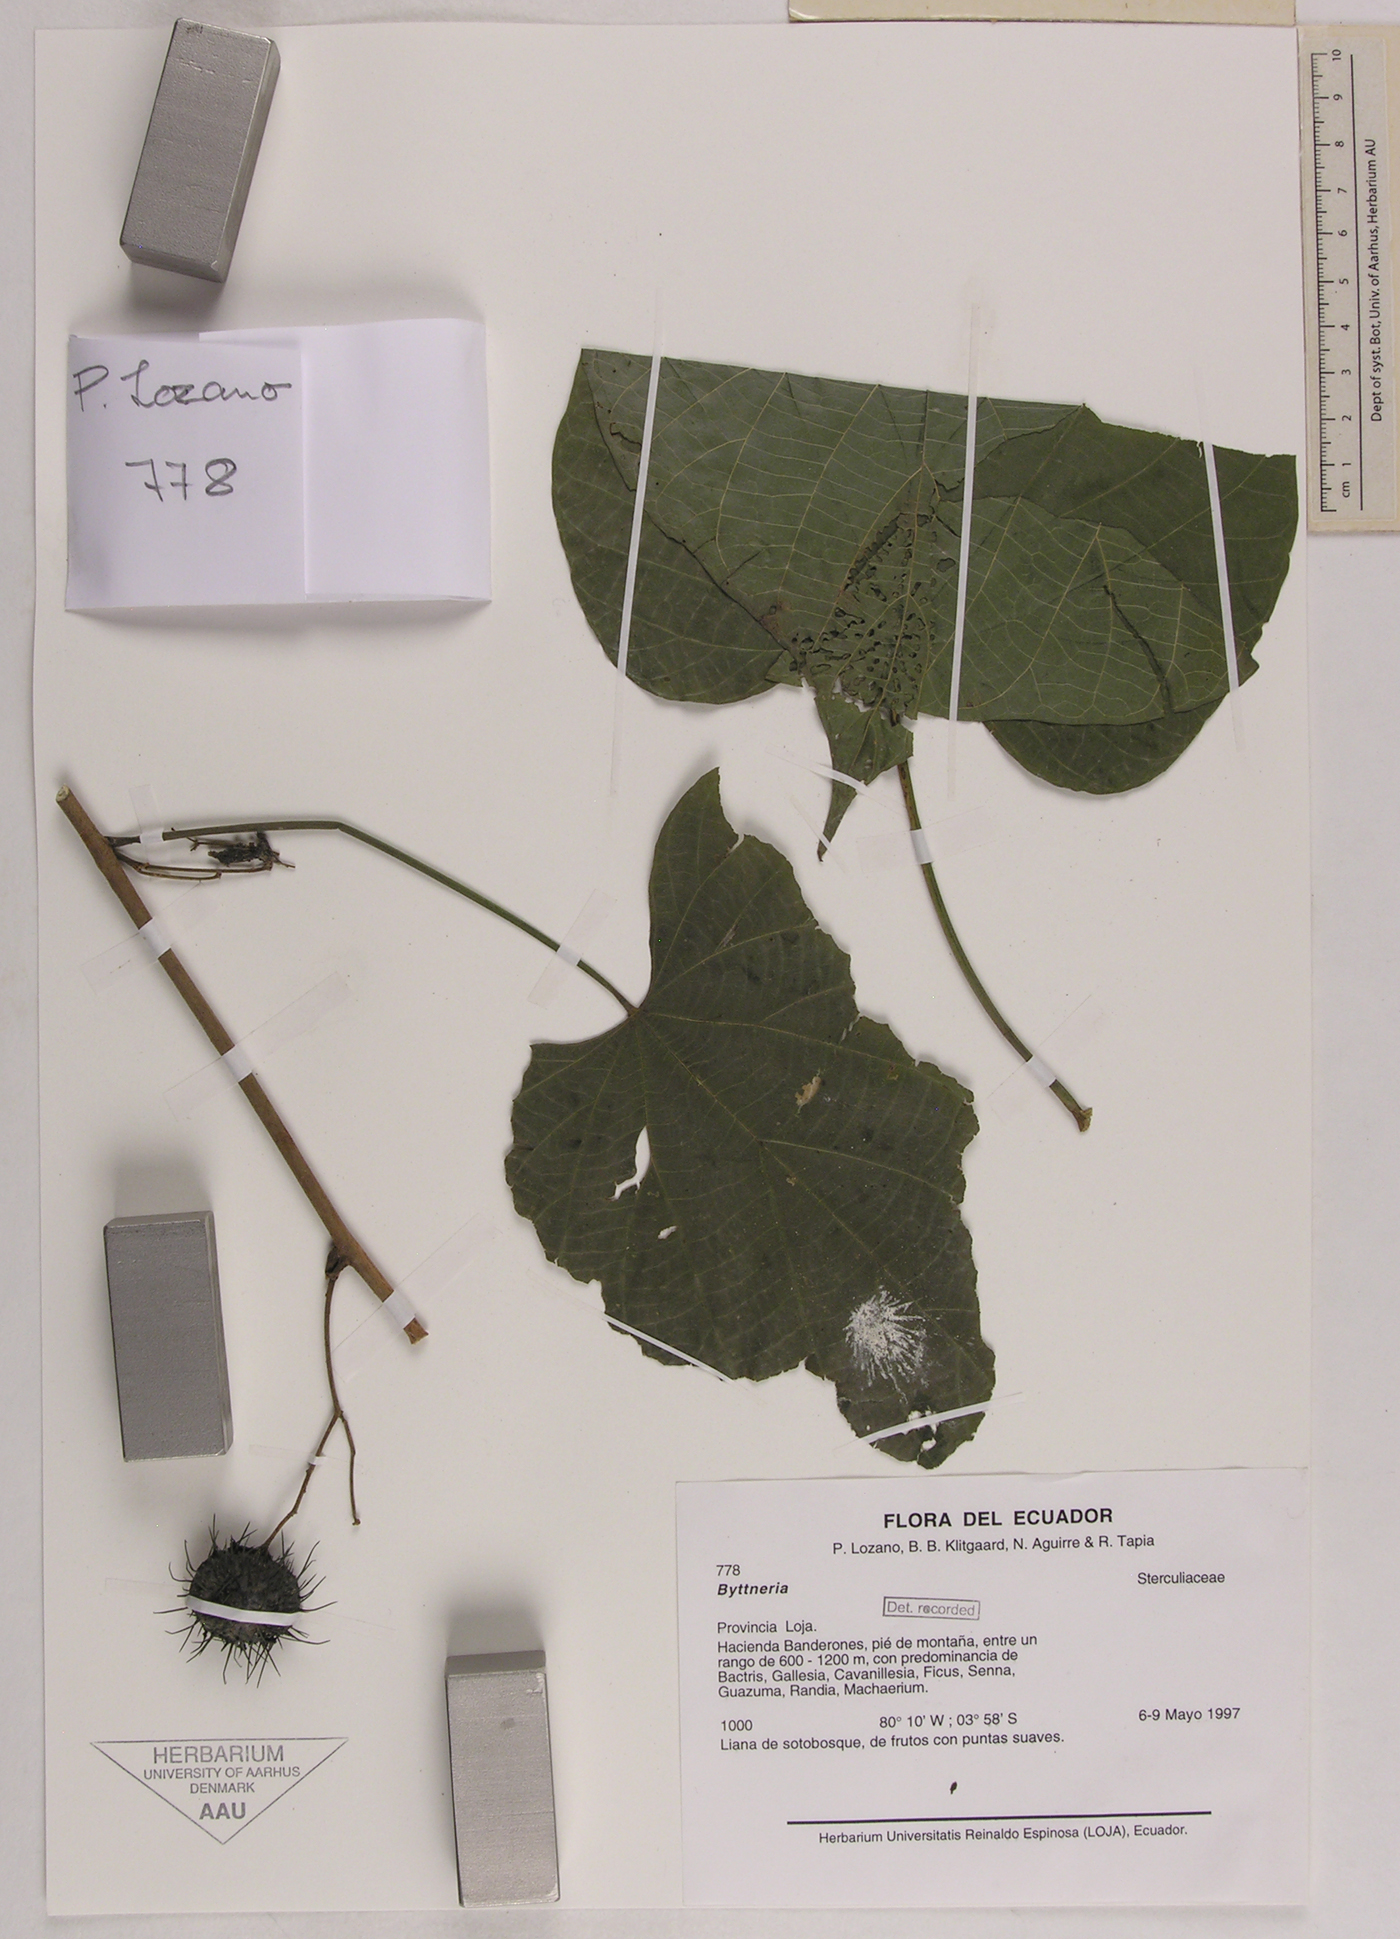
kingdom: Plantae
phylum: Tracheophyta
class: Magnoliopsida
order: Malvales
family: Malvaceae
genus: Byttneria
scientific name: Byttneria
